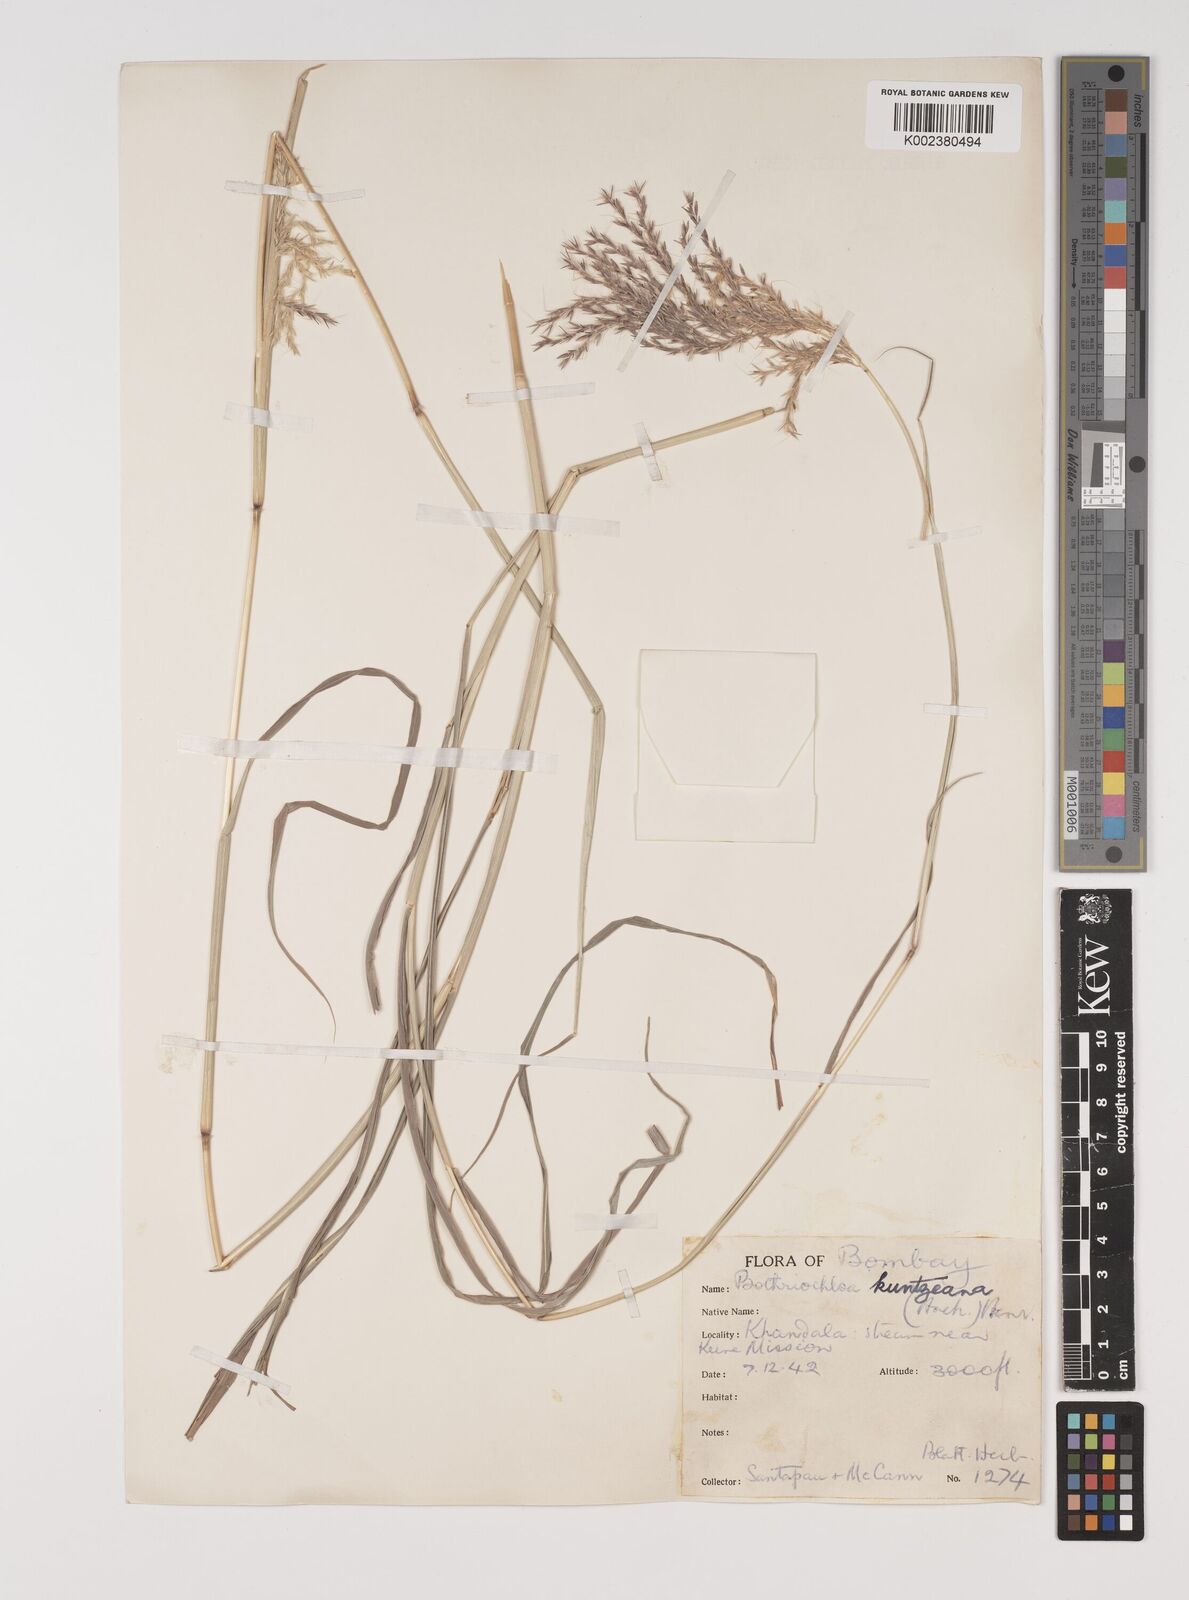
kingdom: Plantae
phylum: Tracheophyta
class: Liliopsida
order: Poales
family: Poaceae
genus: Bothriochloa
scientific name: Bothriochloa kuntzeana
